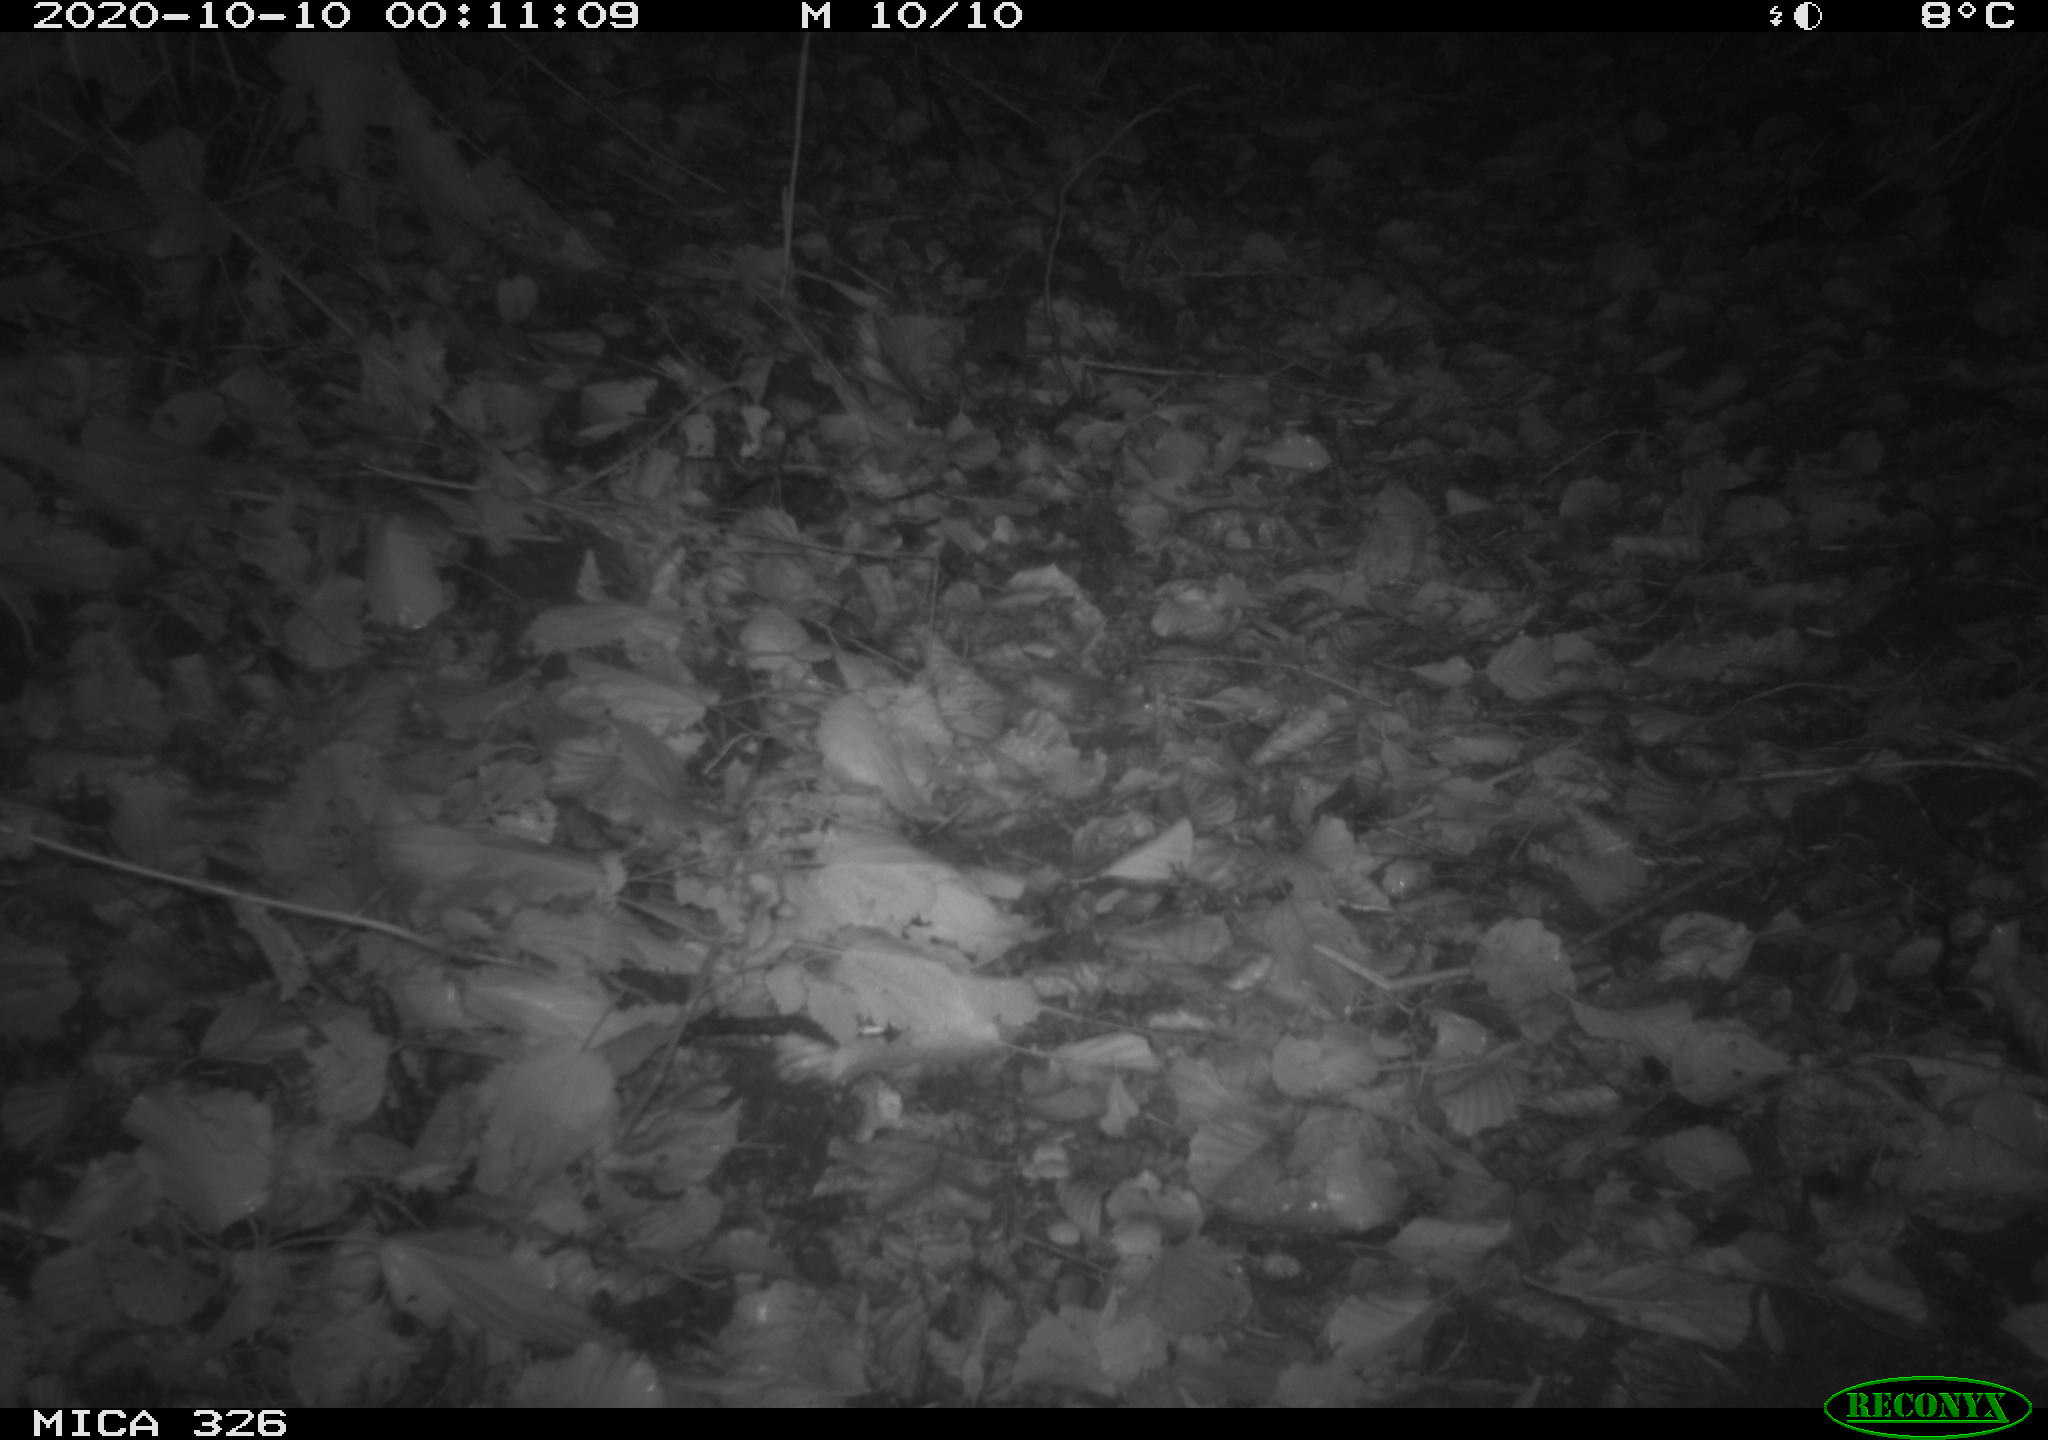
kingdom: Animalia
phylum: Chordata
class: Mammalia
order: Carnivora
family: Mustelidae
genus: Lutra
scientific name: Lutra lutra
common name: European otter
